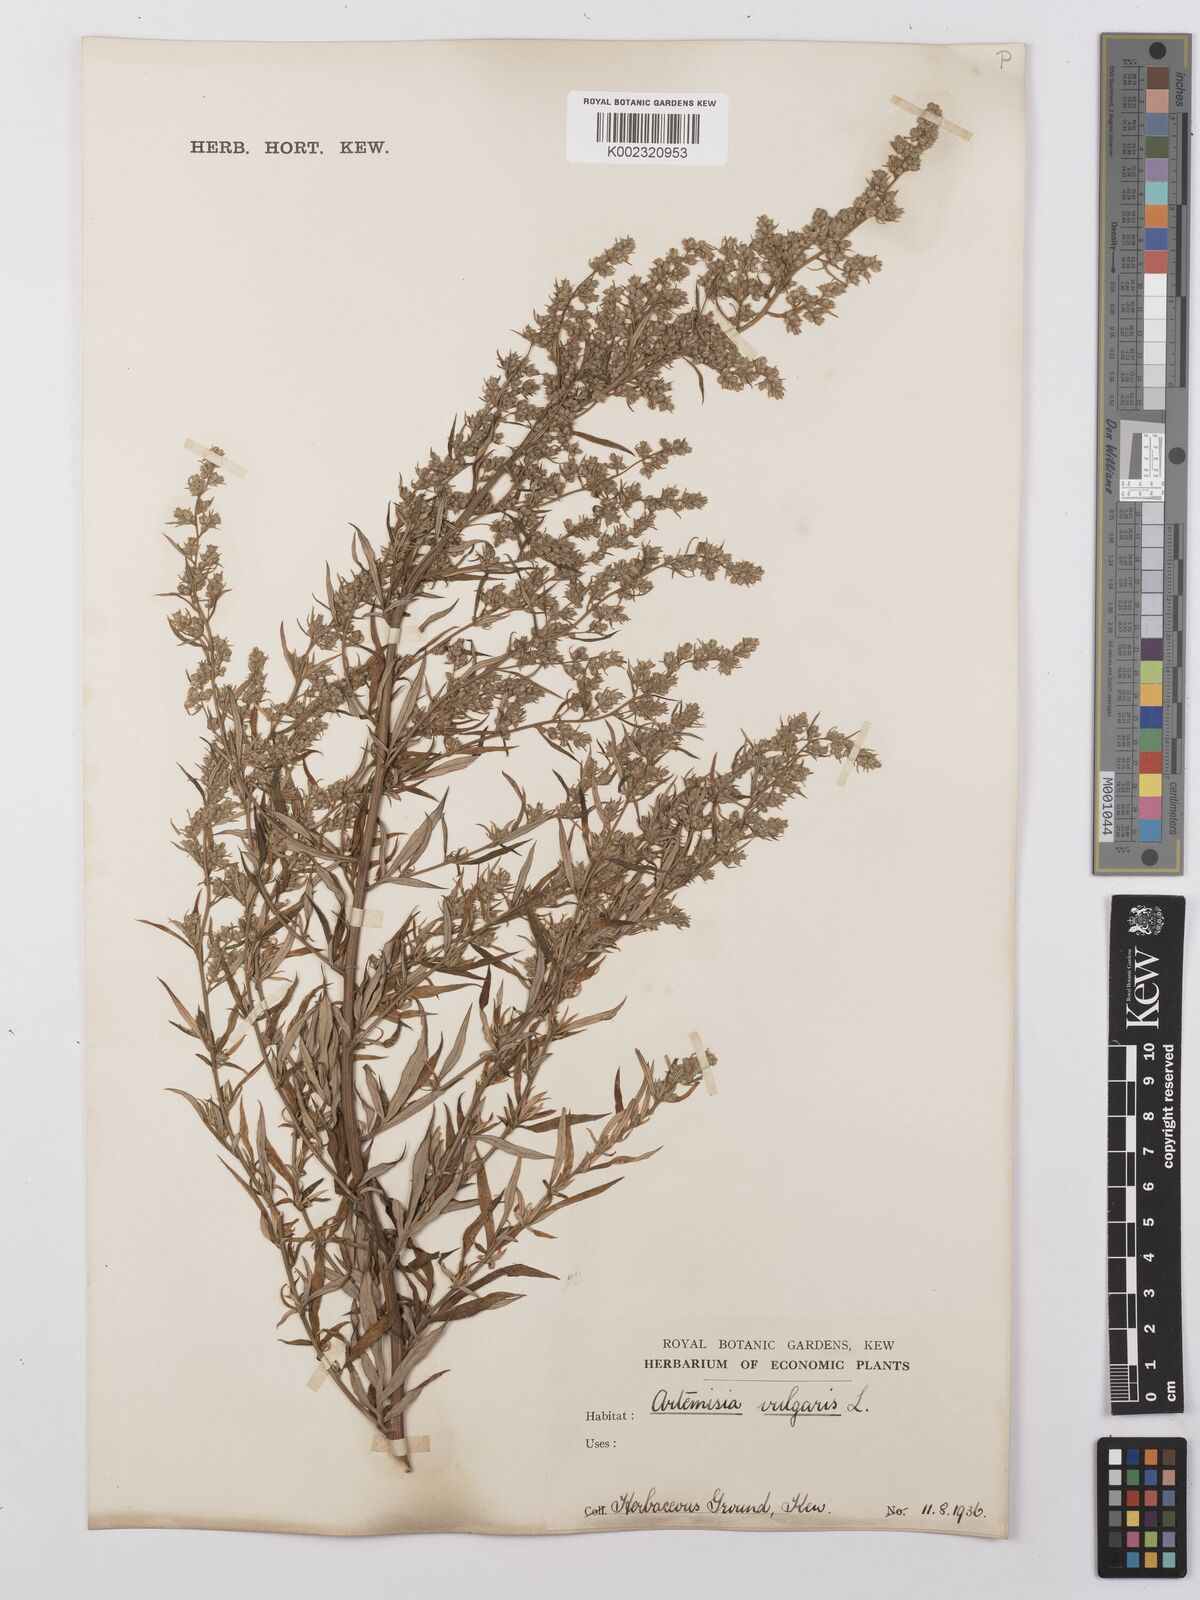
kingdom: Plantae
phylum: Tracheophyta
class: Magnoliopsida
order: Asterales
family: Asteraceae
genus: Artemisia
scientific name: Artemisia vulgaris
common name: Mugwort
